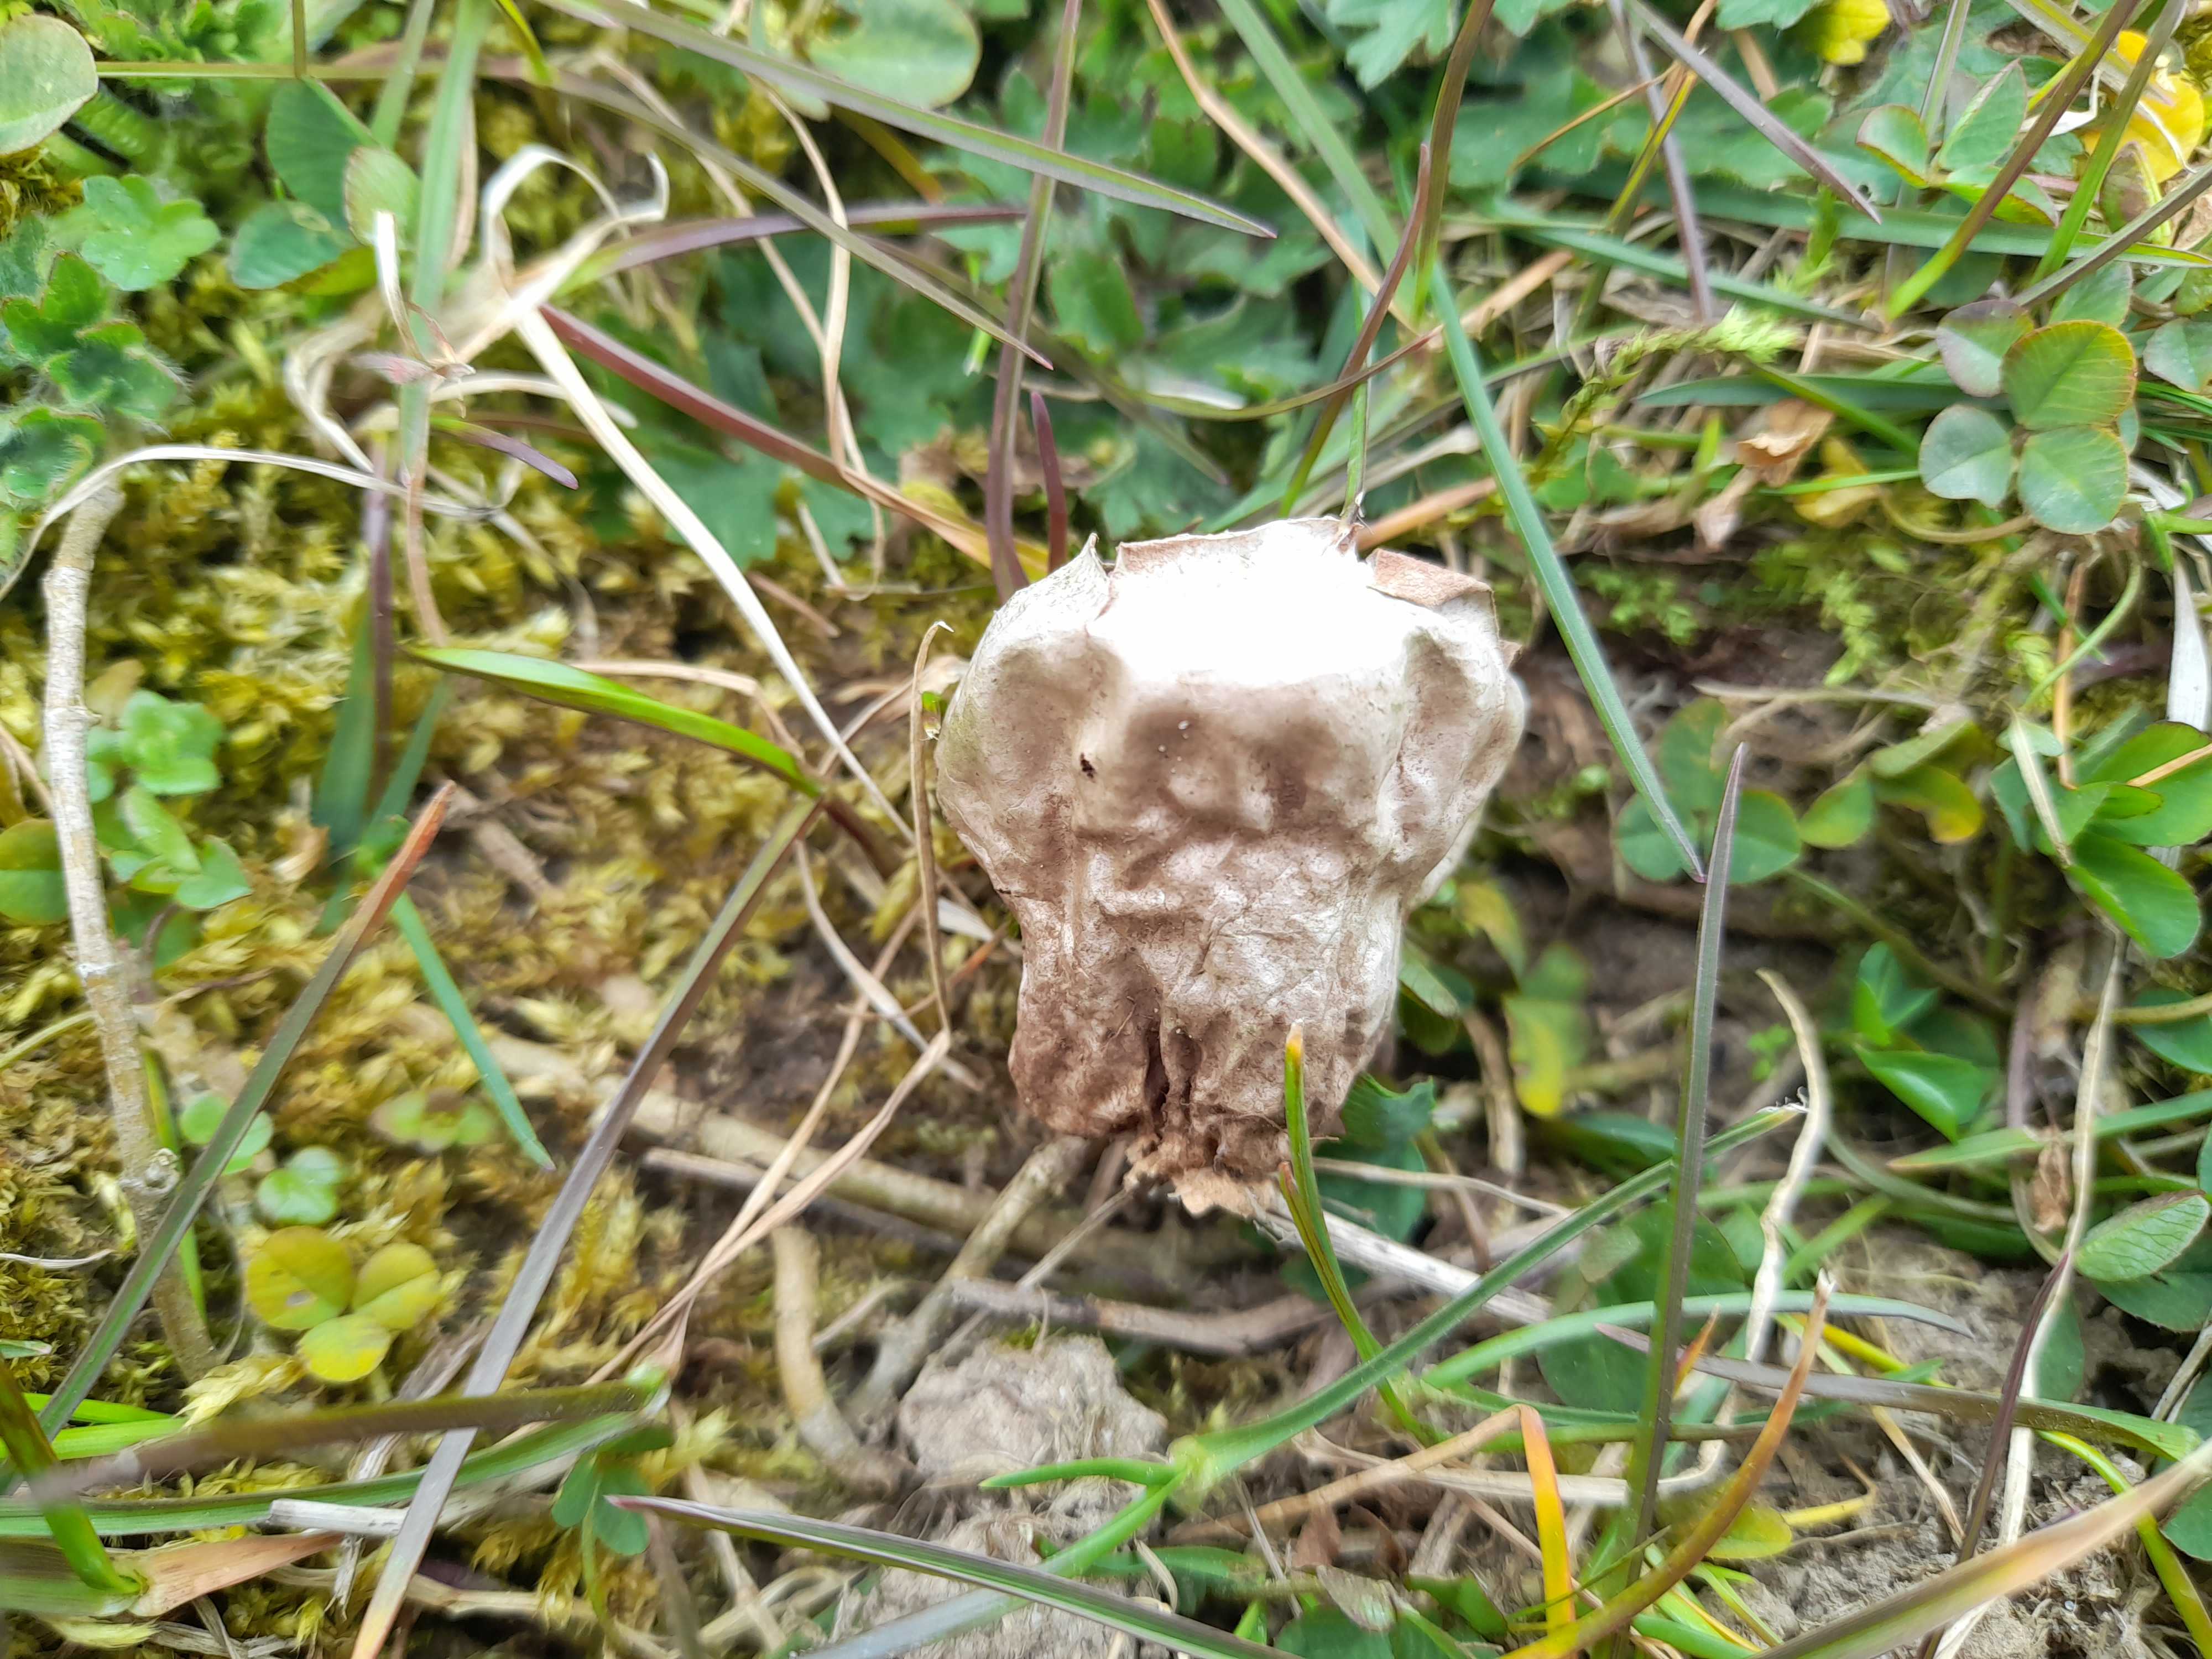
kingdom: Fungi
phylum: Basidiomycota
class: Agaricomycetes
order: Agaricales
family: Agaricaceae
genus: Lycoperdon
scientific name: Lycoperdon
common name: støvbold
